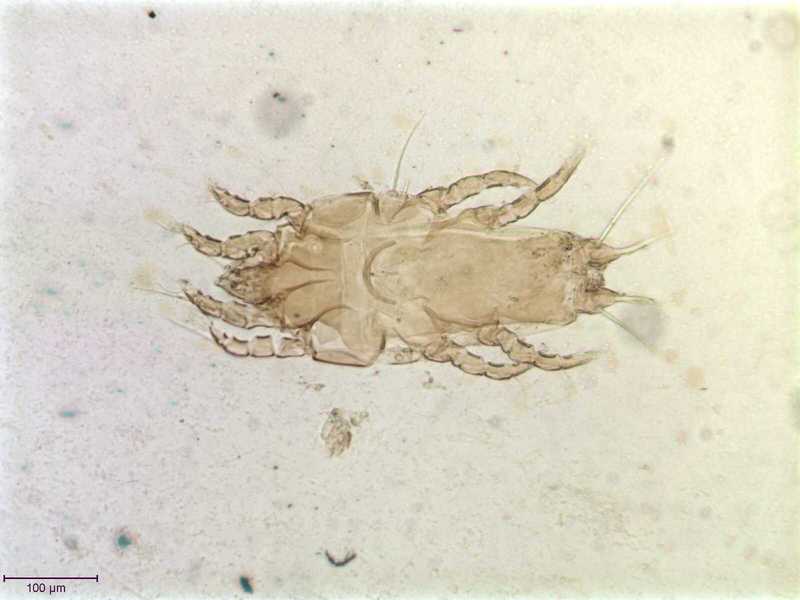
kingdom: Animalia
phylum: Arthropoda
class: Arachnida
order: Sarcoptiformes
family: Proctophyllodidae
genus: Proctophyllodes
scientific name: Proctophyllodes troncatus
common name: Mite
